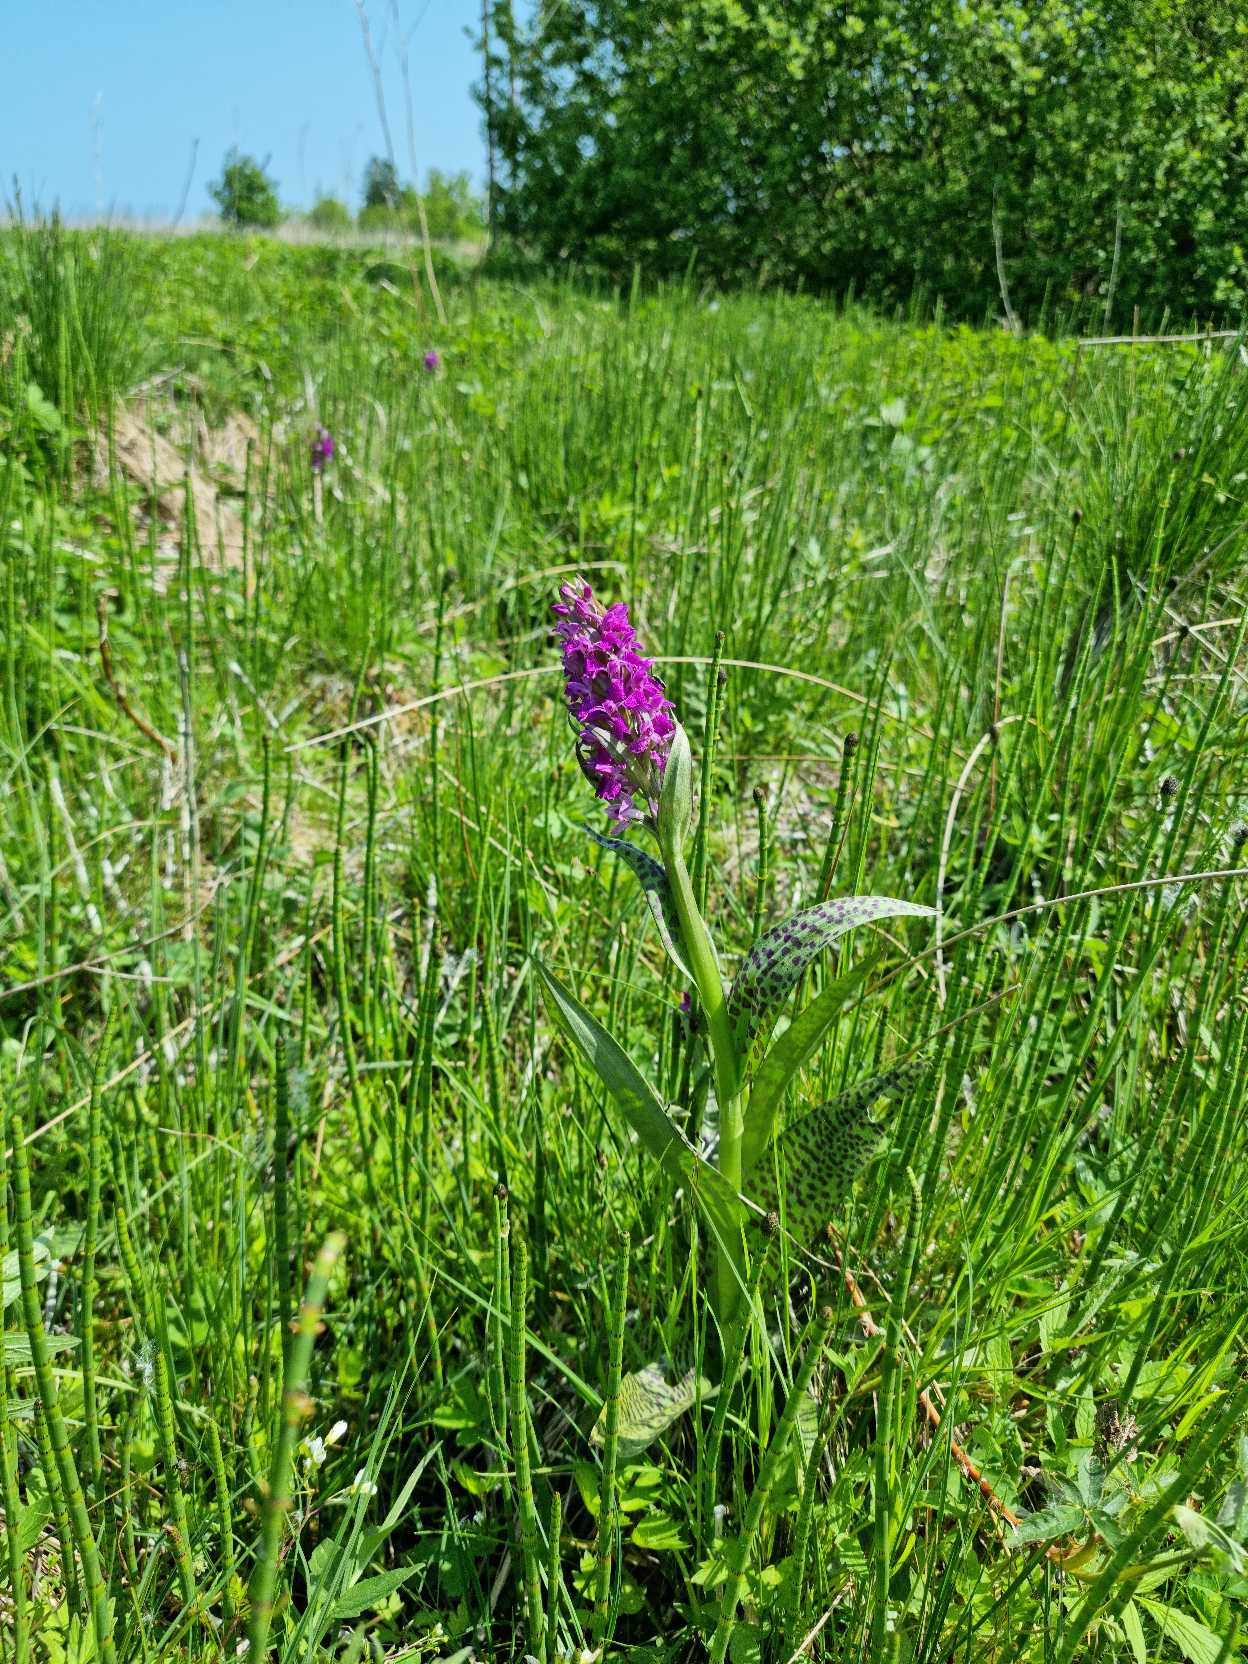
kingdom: Plantae
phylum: Tracheophyta
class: Liliopsida
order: Asparagales
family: Orchidaceae
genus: Dactylorhiza
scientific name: Dactylorhiza majalis
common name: Maj-gøgeurt
